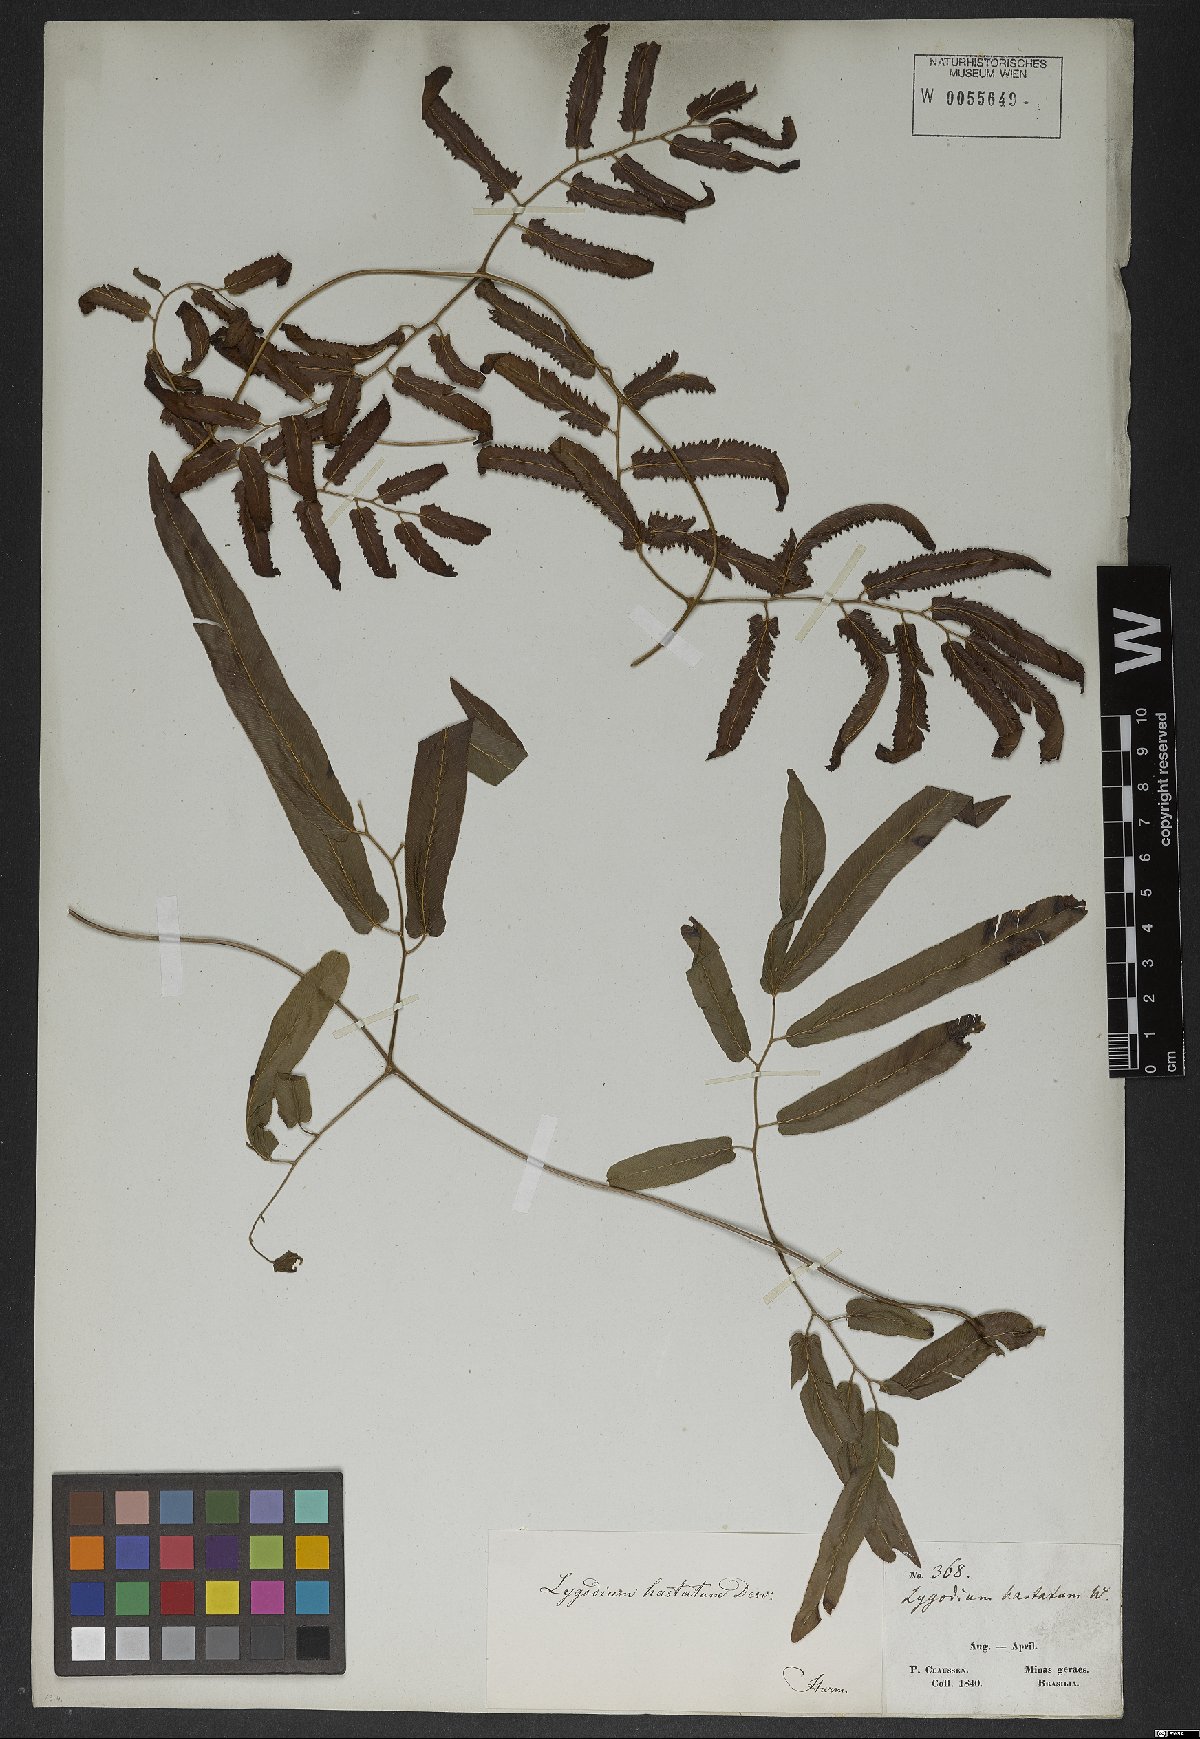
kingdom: Plantae
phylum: Tracheophyta
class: Polypodiopsida
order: Schizaeales
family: Lygodiaceae
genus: Lygodium
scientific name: Lygodium volubile
